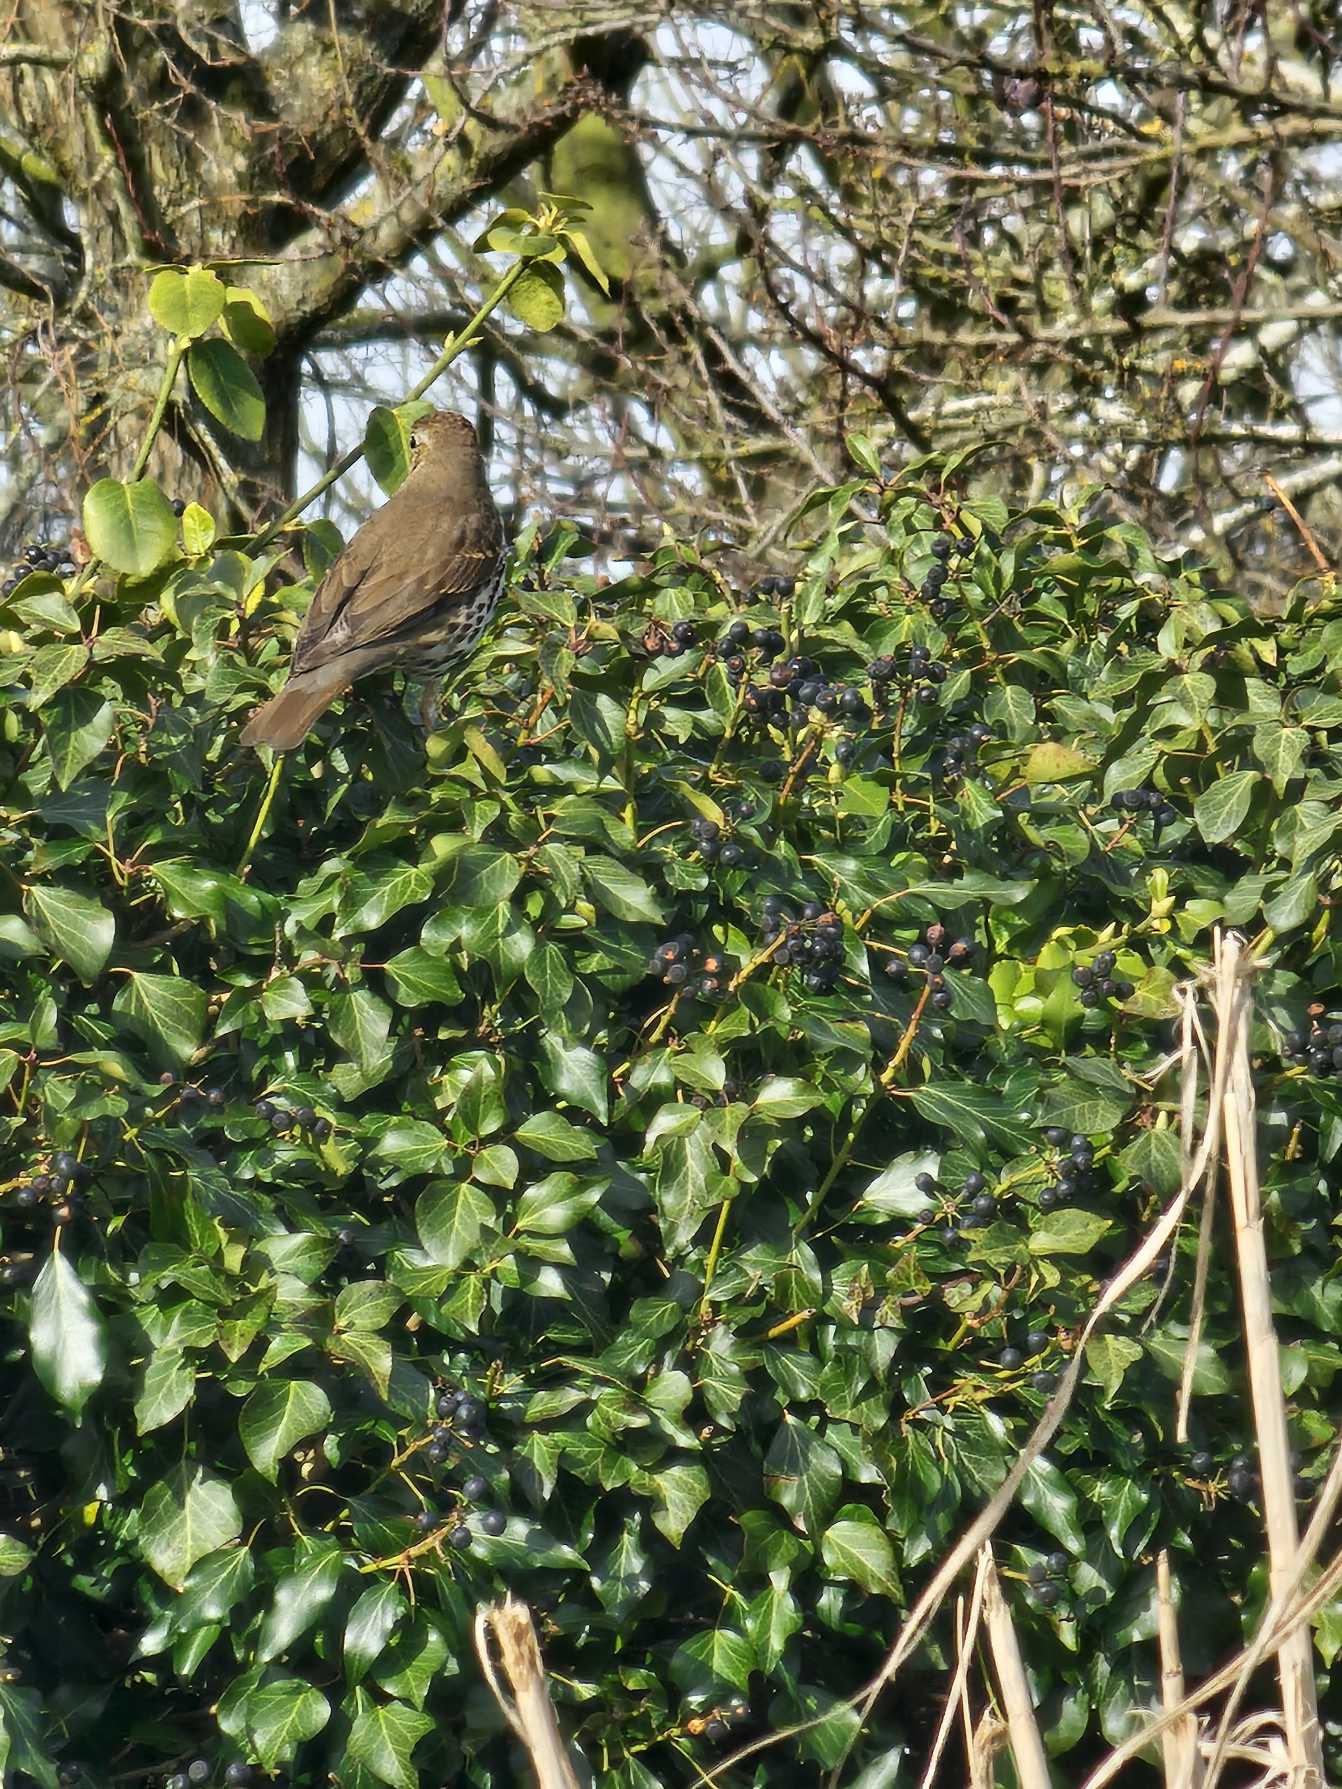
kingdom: Animalia
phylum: Chordata
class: Aves
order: Passeriformes
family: Turdidae
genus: Turdus
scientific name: Turdus philomelos
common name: Sangdrossel
